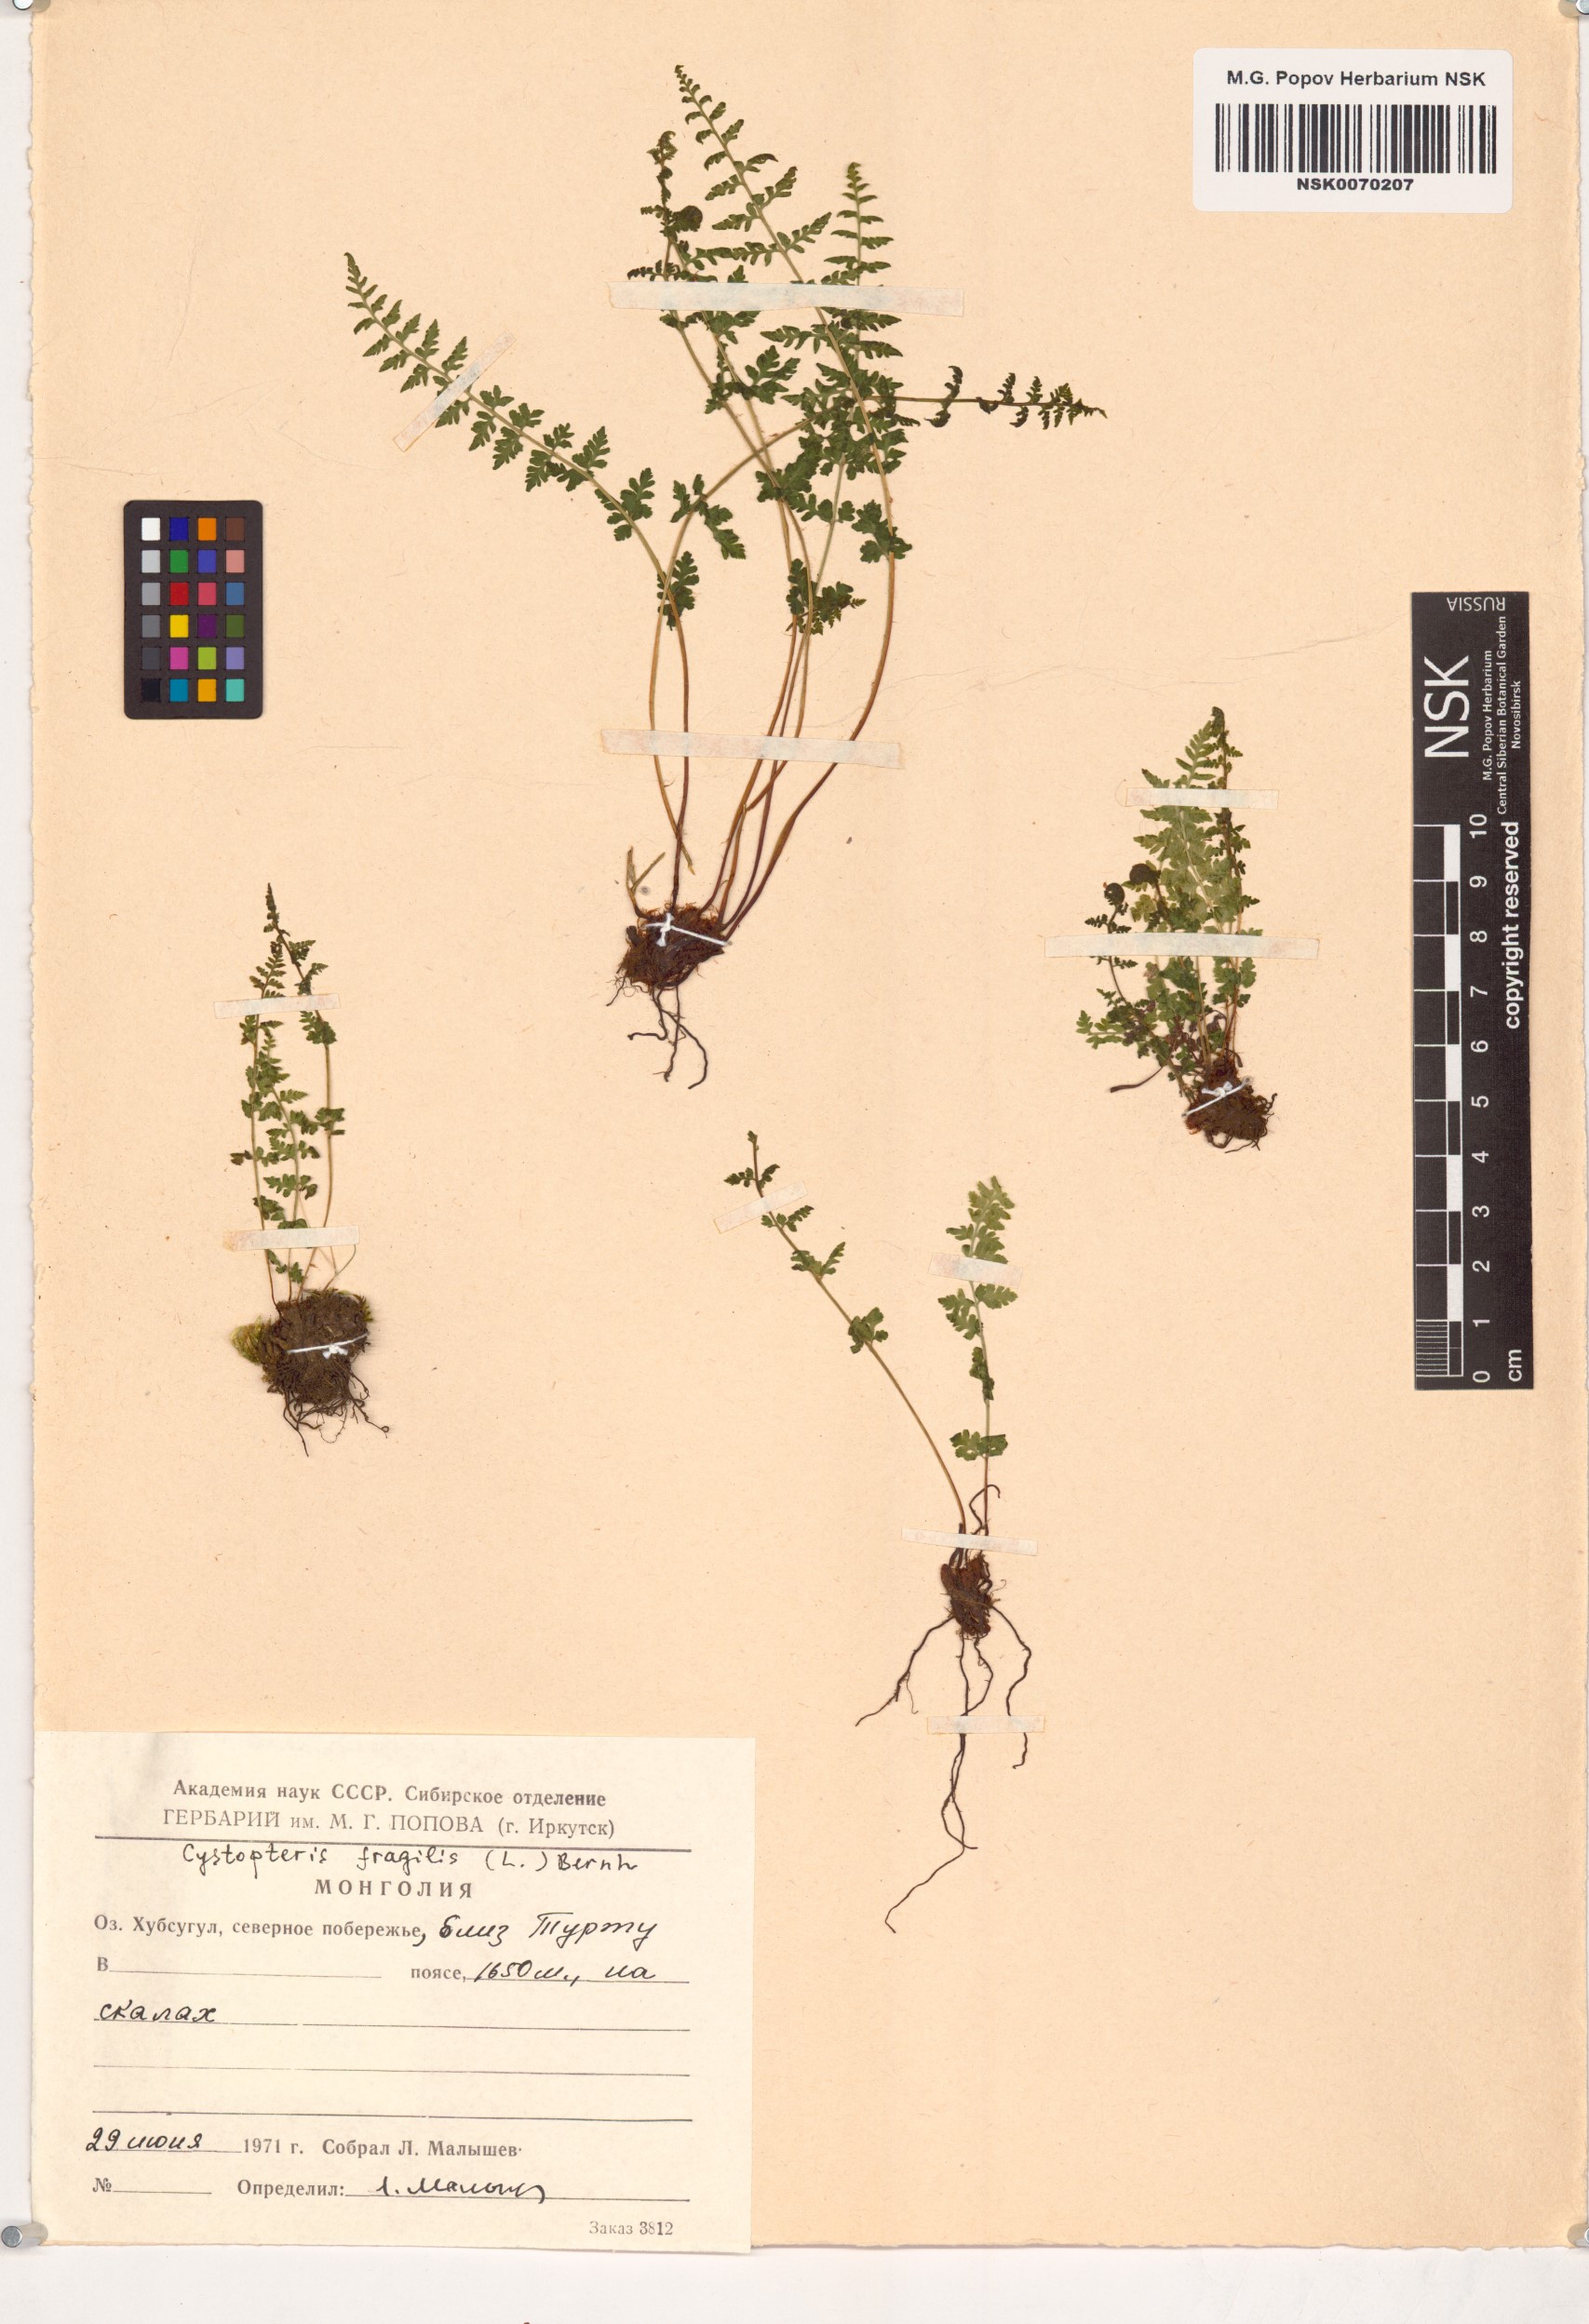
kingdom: Plantae
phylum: Tracheophyta
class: Polypodiopsida
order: Polypodiales
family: Cystopteridaceae
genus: Cystopteris
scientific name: Cystopteris fragilis
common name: Brittle bladder fern
